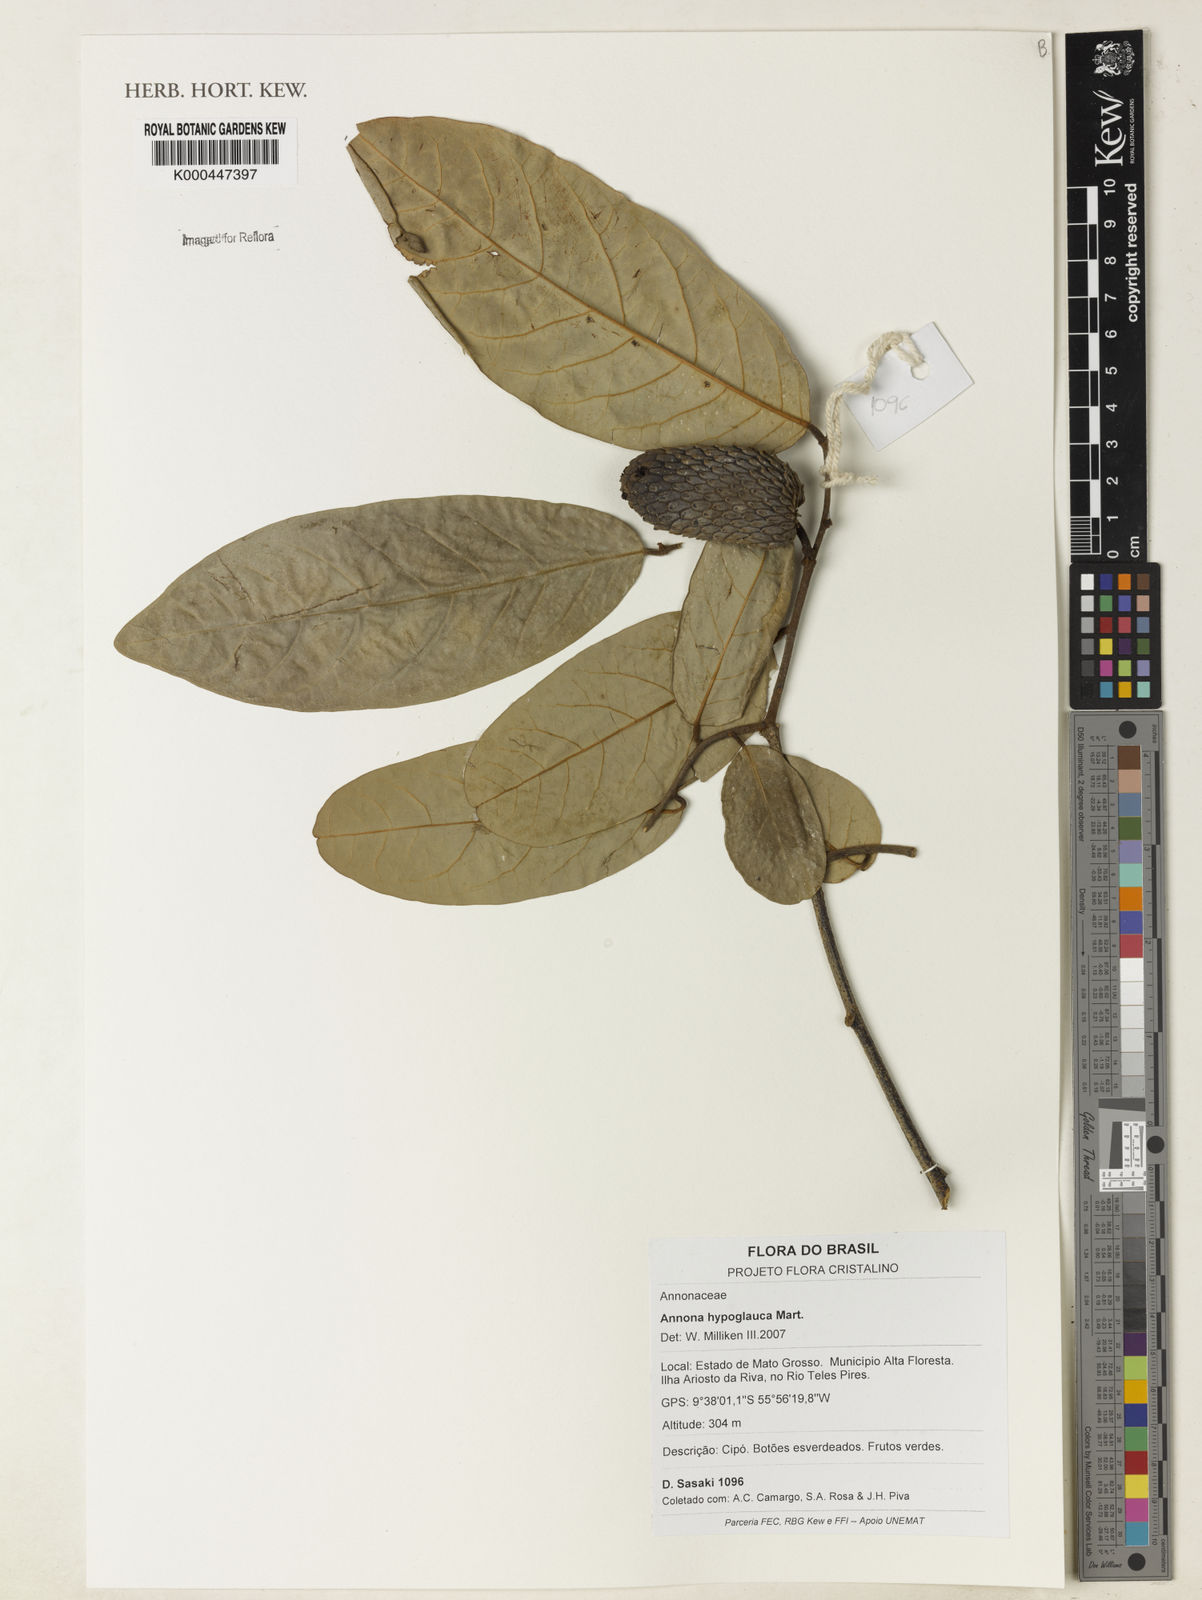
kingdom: Plantae
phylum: Tracheophyta
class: Magnoliopsida
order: Magnoliales
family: Annonaceae
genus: Annona
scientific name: Annona hypoglauca
